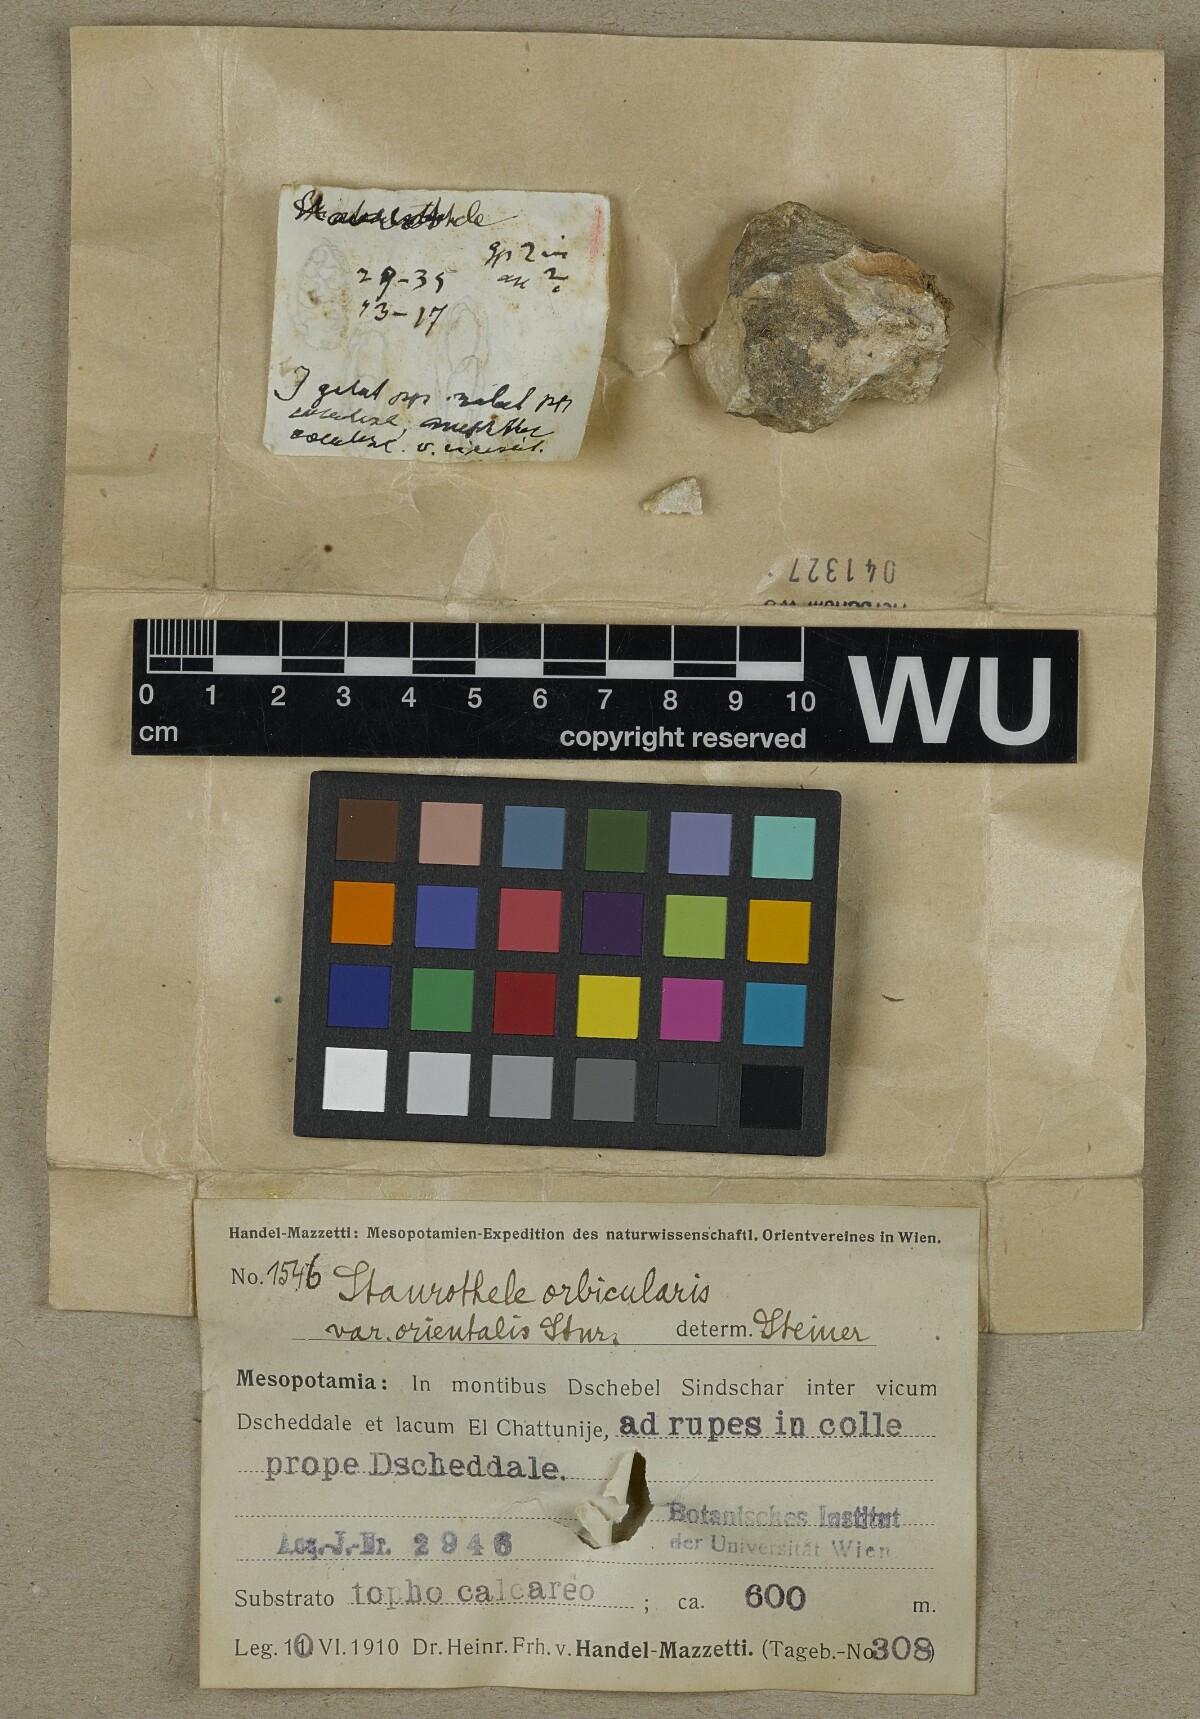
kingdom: Fungi
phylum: Ascomycota
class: Eurotiomycetes
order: Verrucariales
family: Verrucariaceae
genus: Staurothele
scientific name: Staurothele guestphalica
